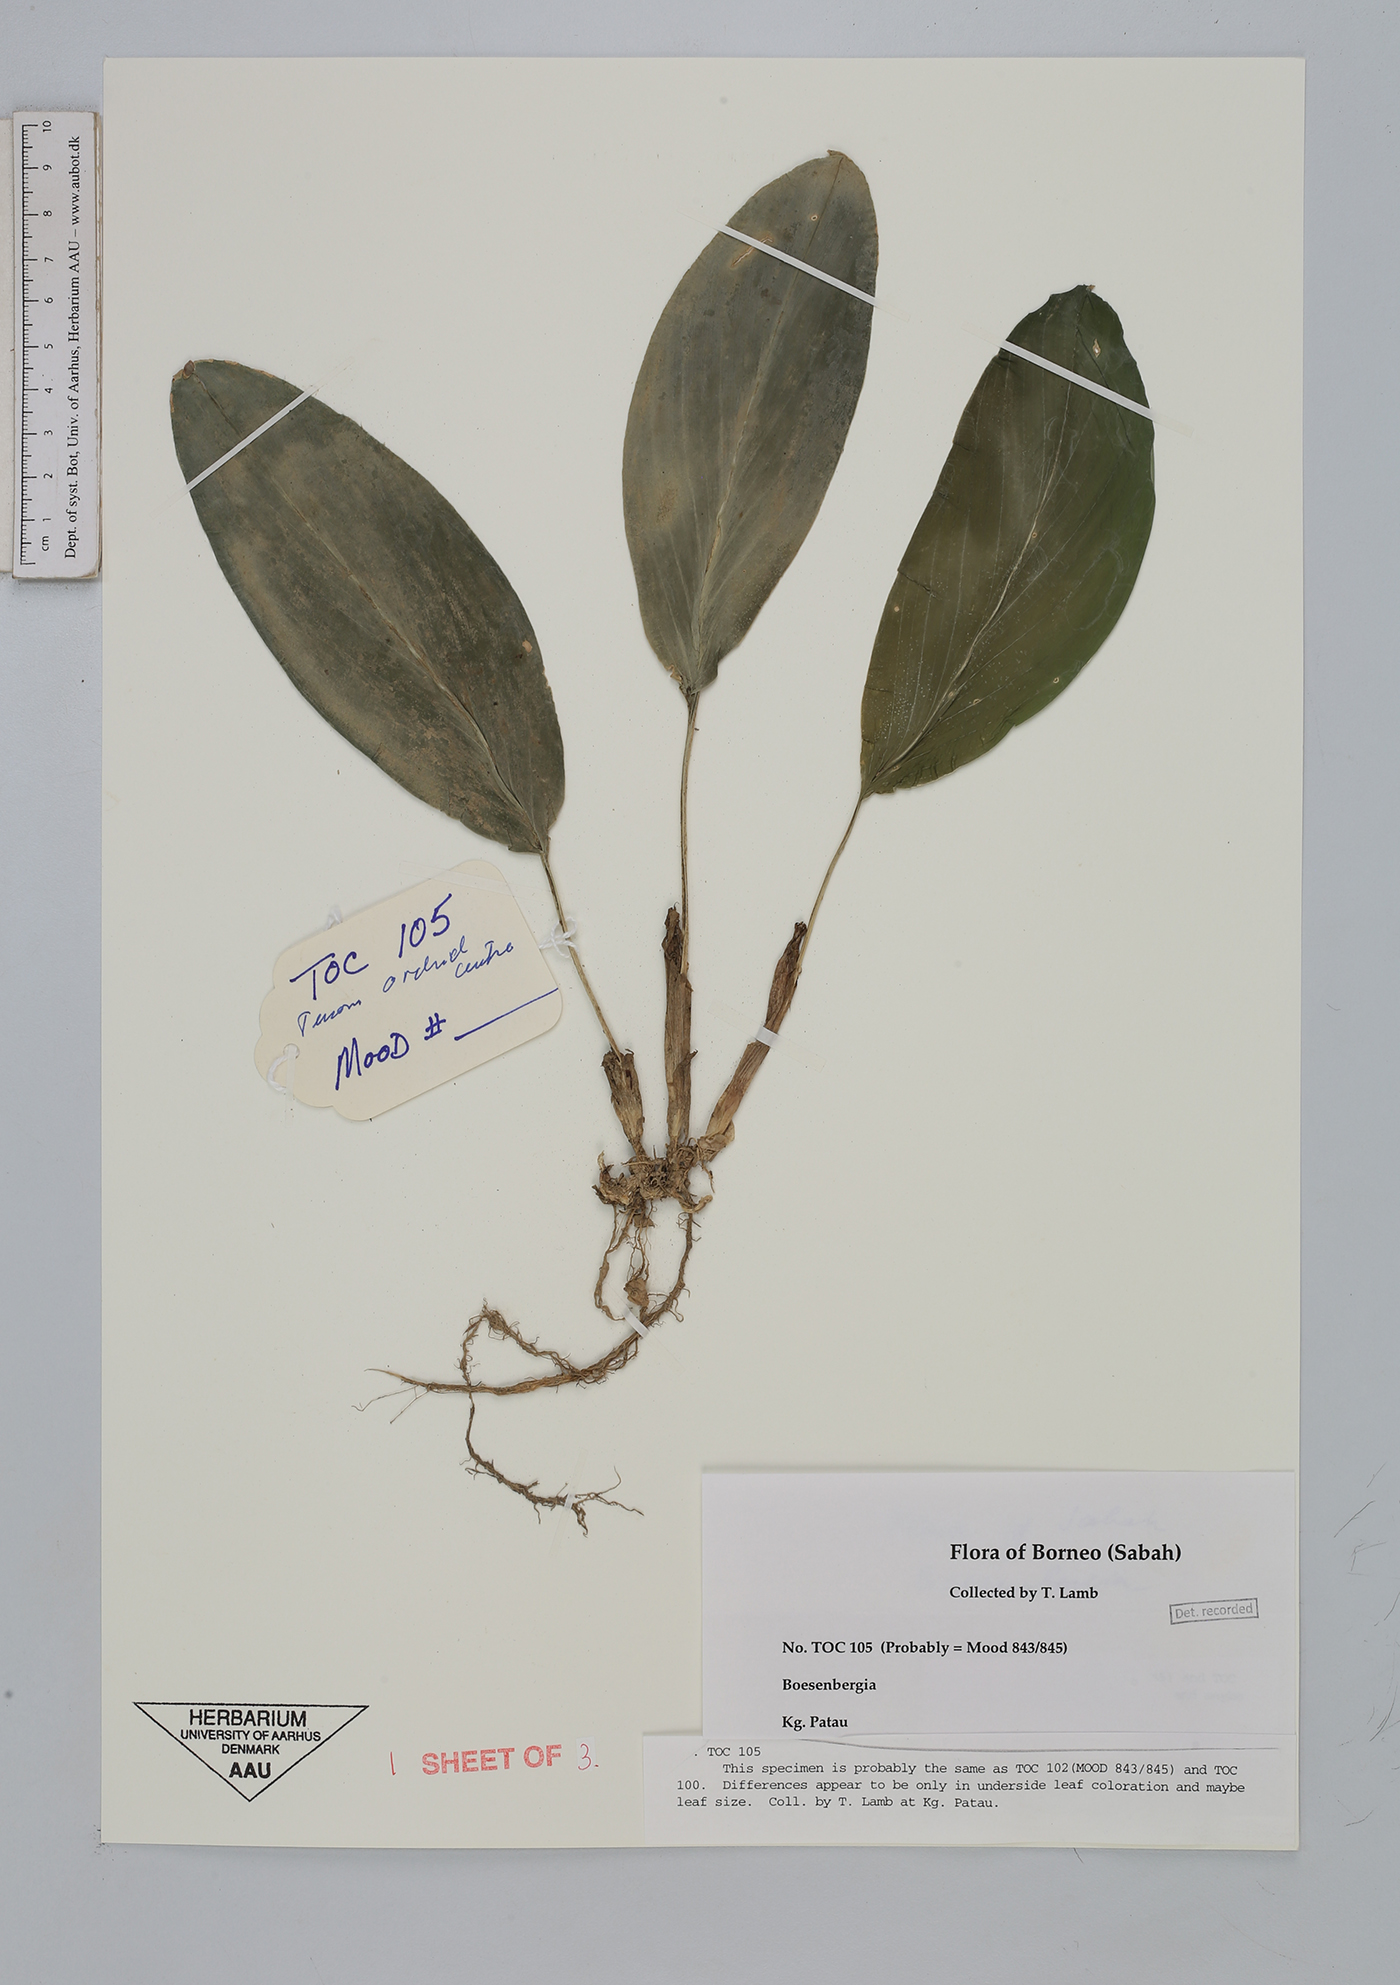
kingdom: Plantae
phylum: Tracheophyta
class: Liliopsida
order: Zingiberales
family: Zingiberaceae
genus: Boesenbergia
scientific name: Boesenbergia
